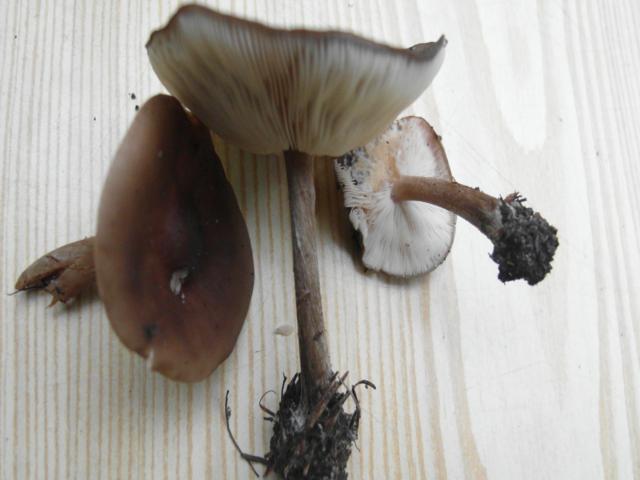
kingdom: Fungi
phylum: Basidiomycota
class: Agaricomycetes
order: Agaricales
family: Tricholomataceae
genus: Melanoleuca
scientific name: Melanoleuca polioleuca
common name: almindelig munkehat
